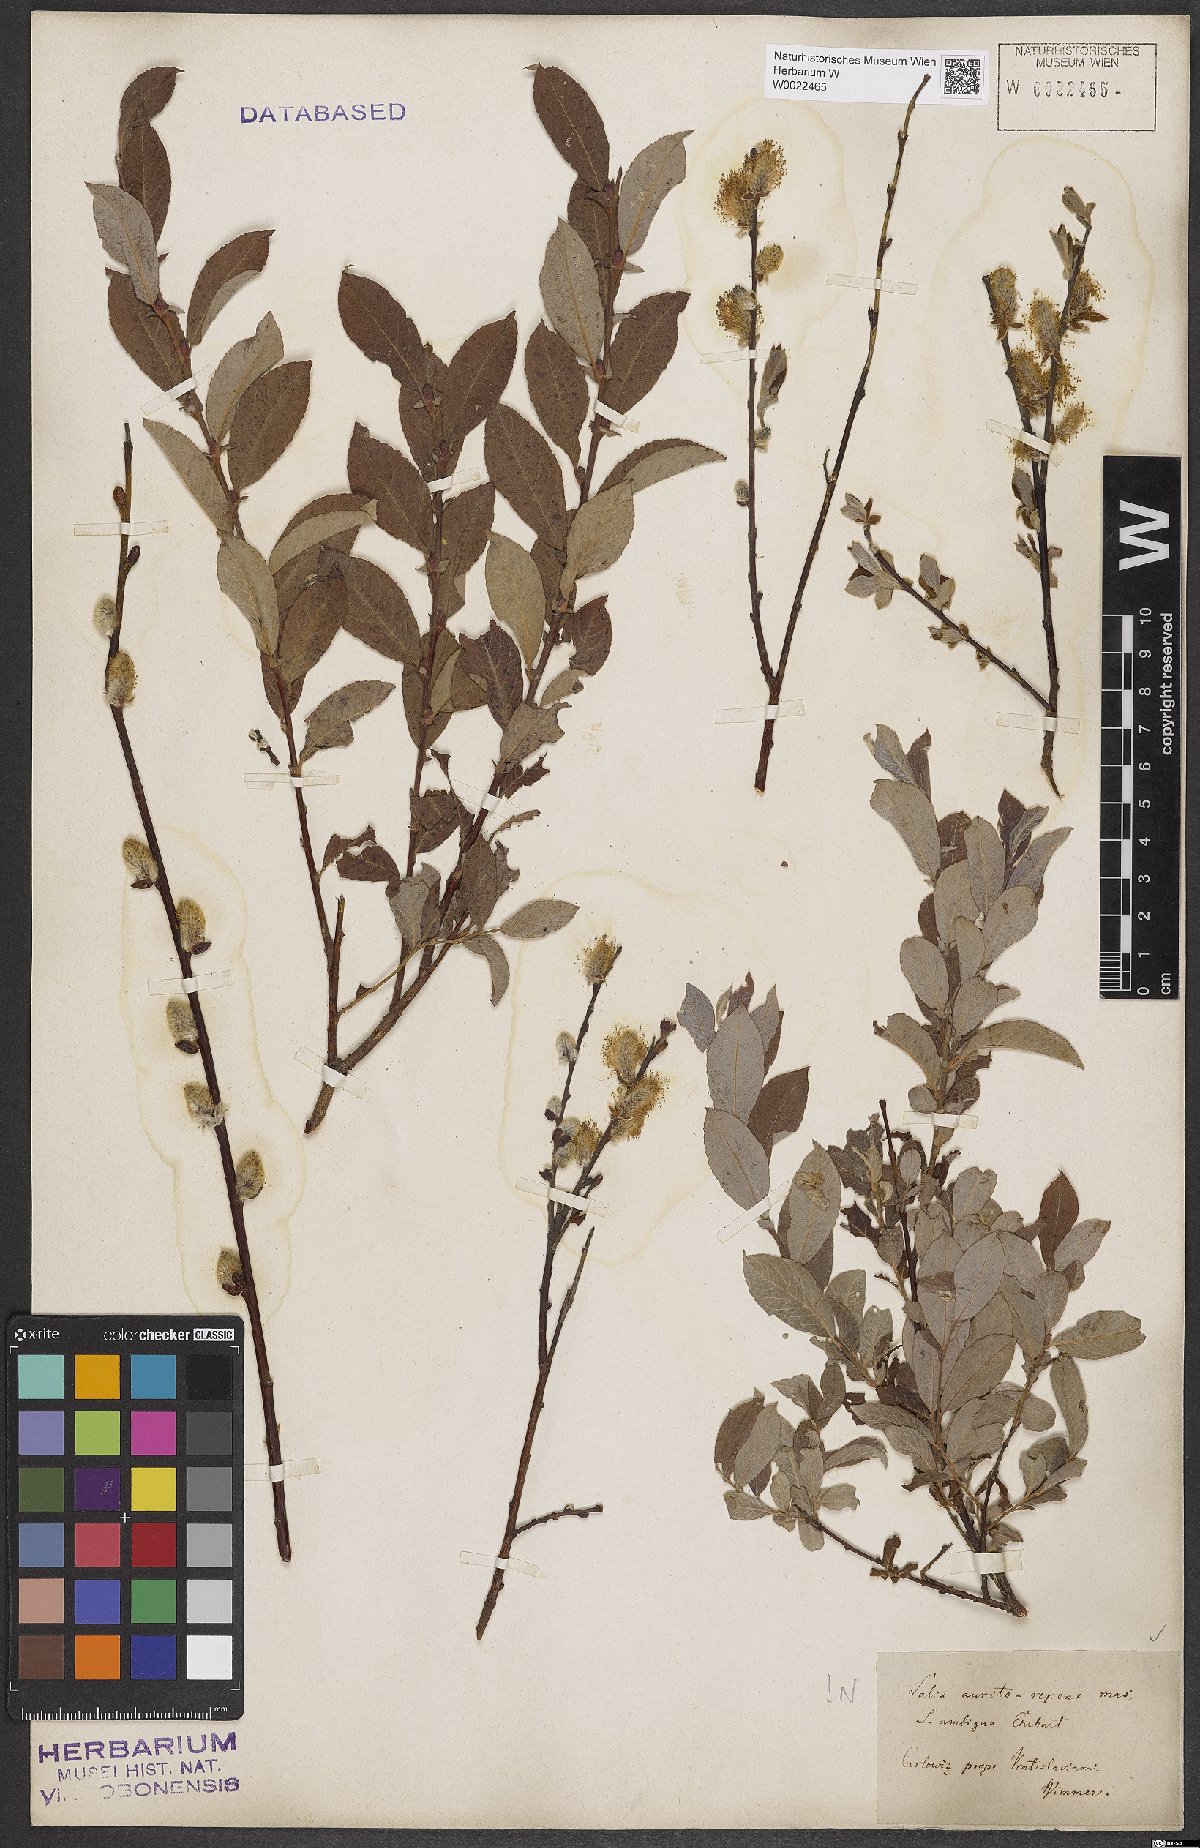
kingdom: Plantae
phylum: Tracheophyta
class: Magnoliopsida
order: Malpighiales
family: Salicaceae
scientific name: Salicaceae
